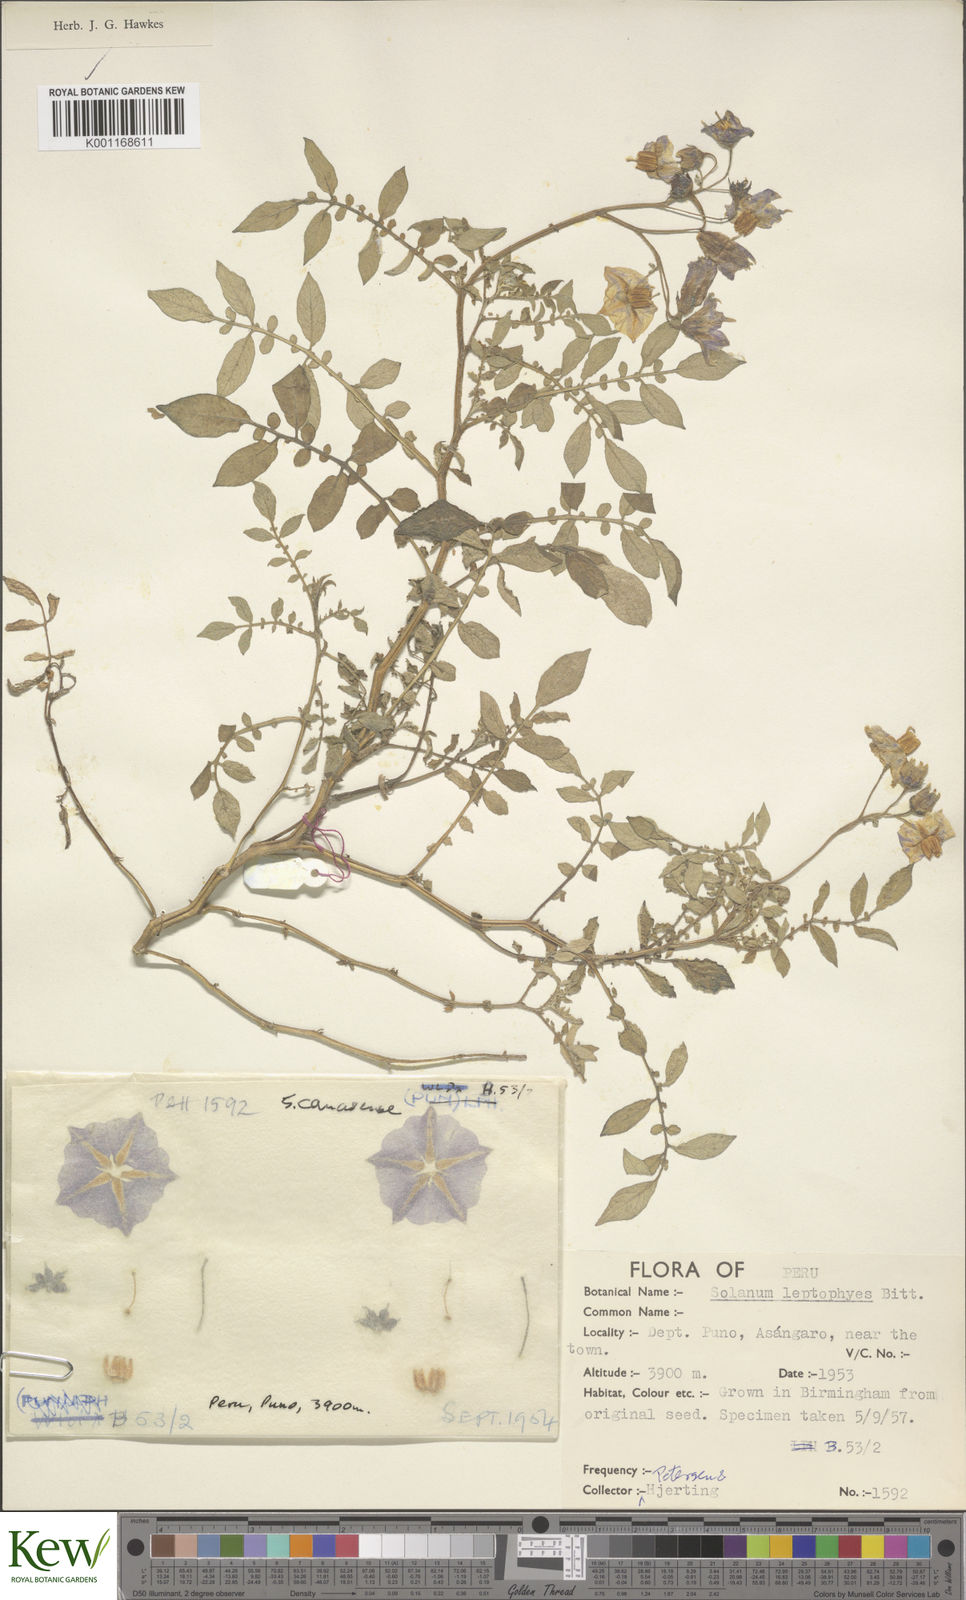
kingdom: Plantae
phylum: Tracheophyta
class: Magnoliopsida
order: Solanales
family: Solanaceae
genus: Solanum
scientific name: Solanum candolleanum
